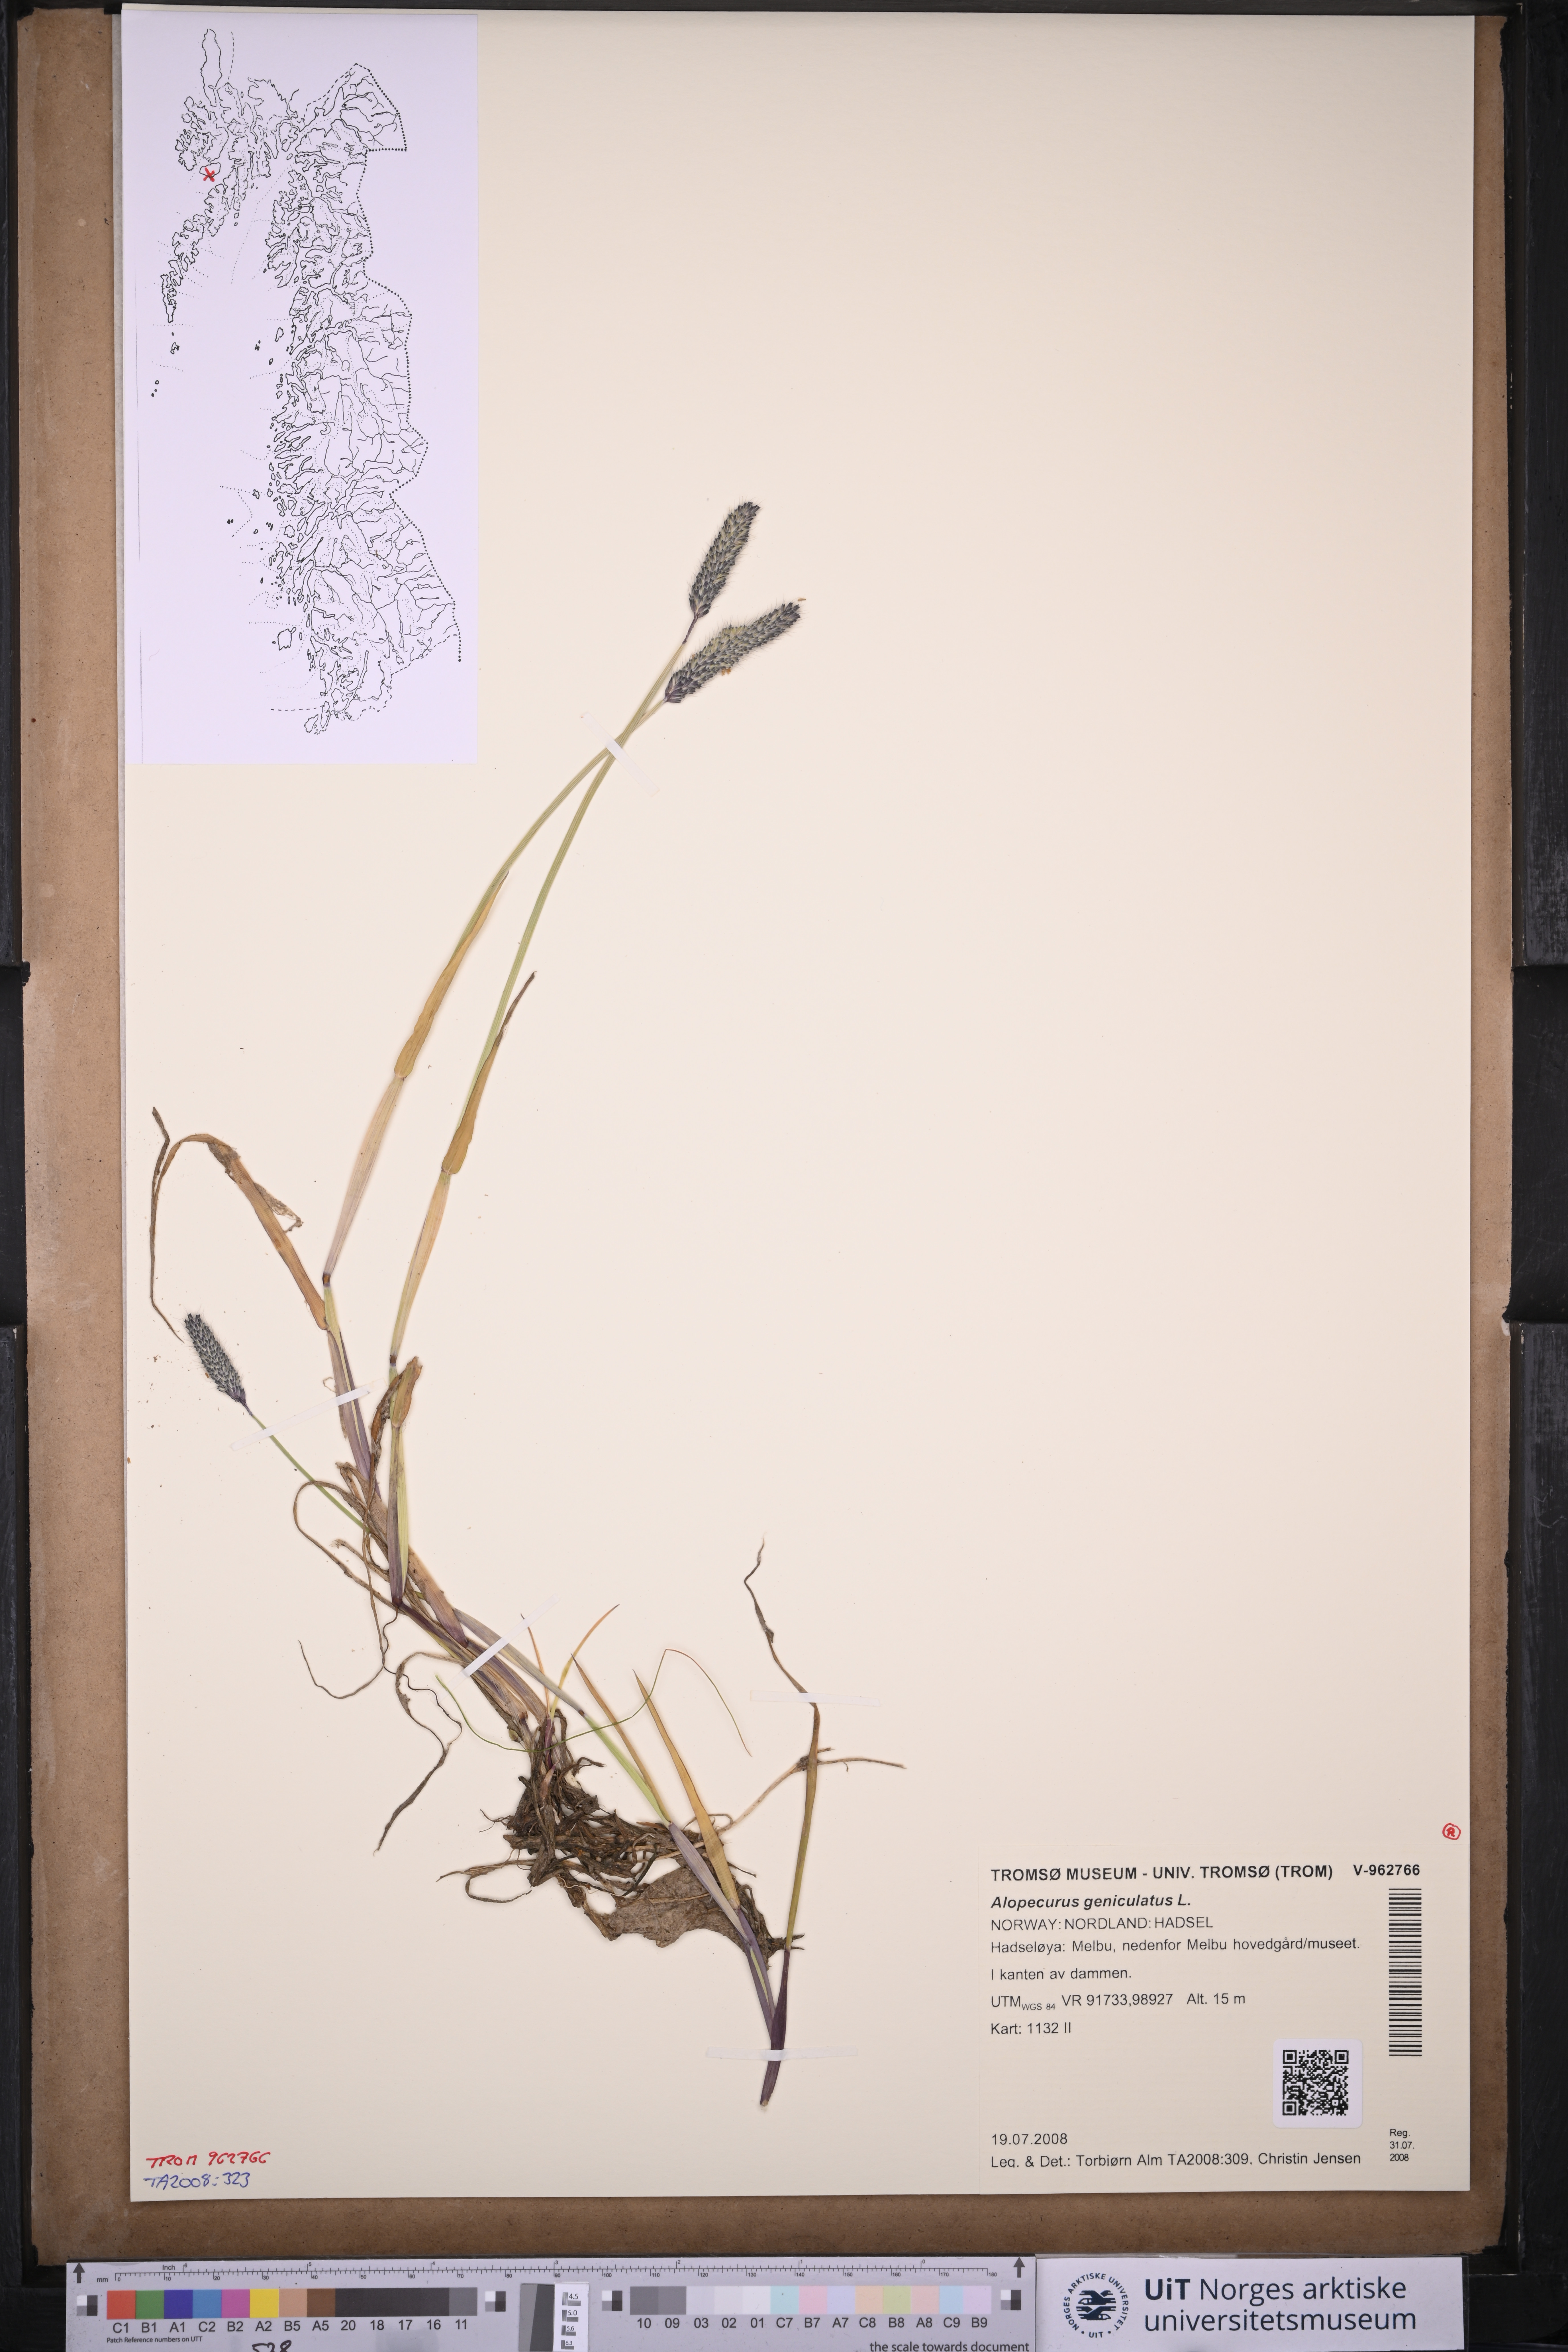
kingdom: Plantae
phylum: Tracheophyta
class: Liliopsida
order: Poales
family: Poaceae
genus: Alopecurus
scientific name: Alopecurus geniculatus
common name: Water foxtail
